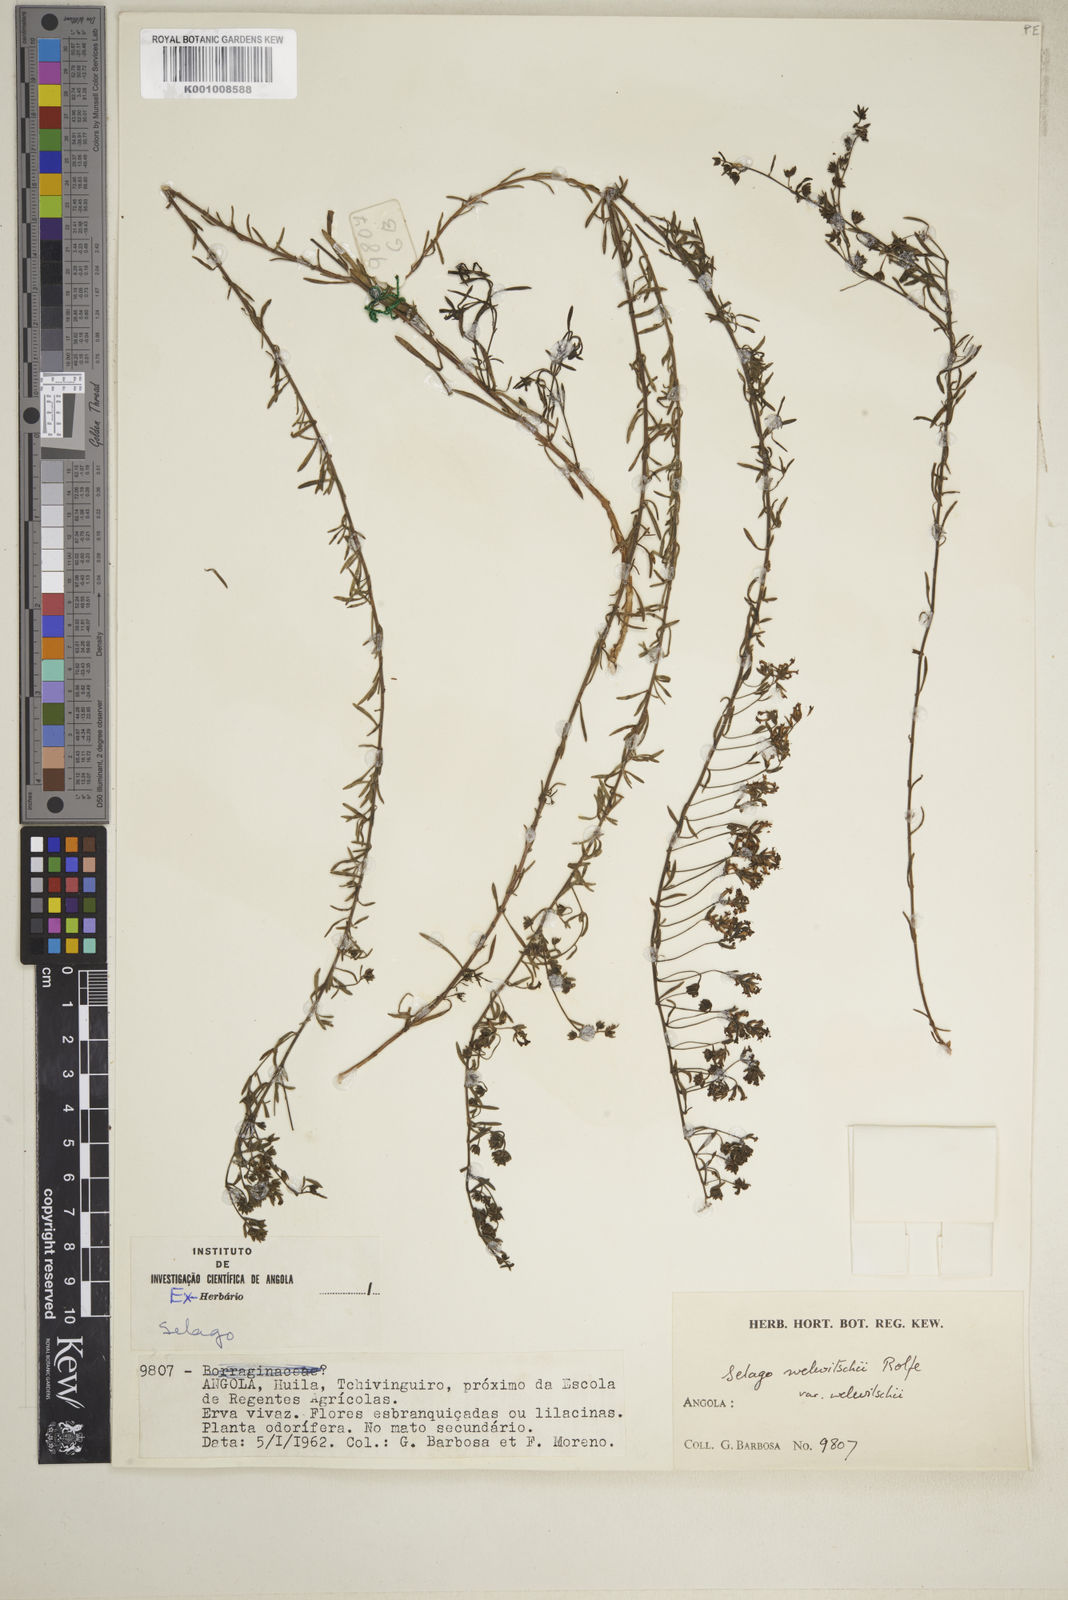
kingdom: Plantae
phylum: Tracheophyta
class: Magnoliopsida
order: Lamiales
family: Scrophulariaceae
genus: Selago
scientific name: Selago welwitschii
